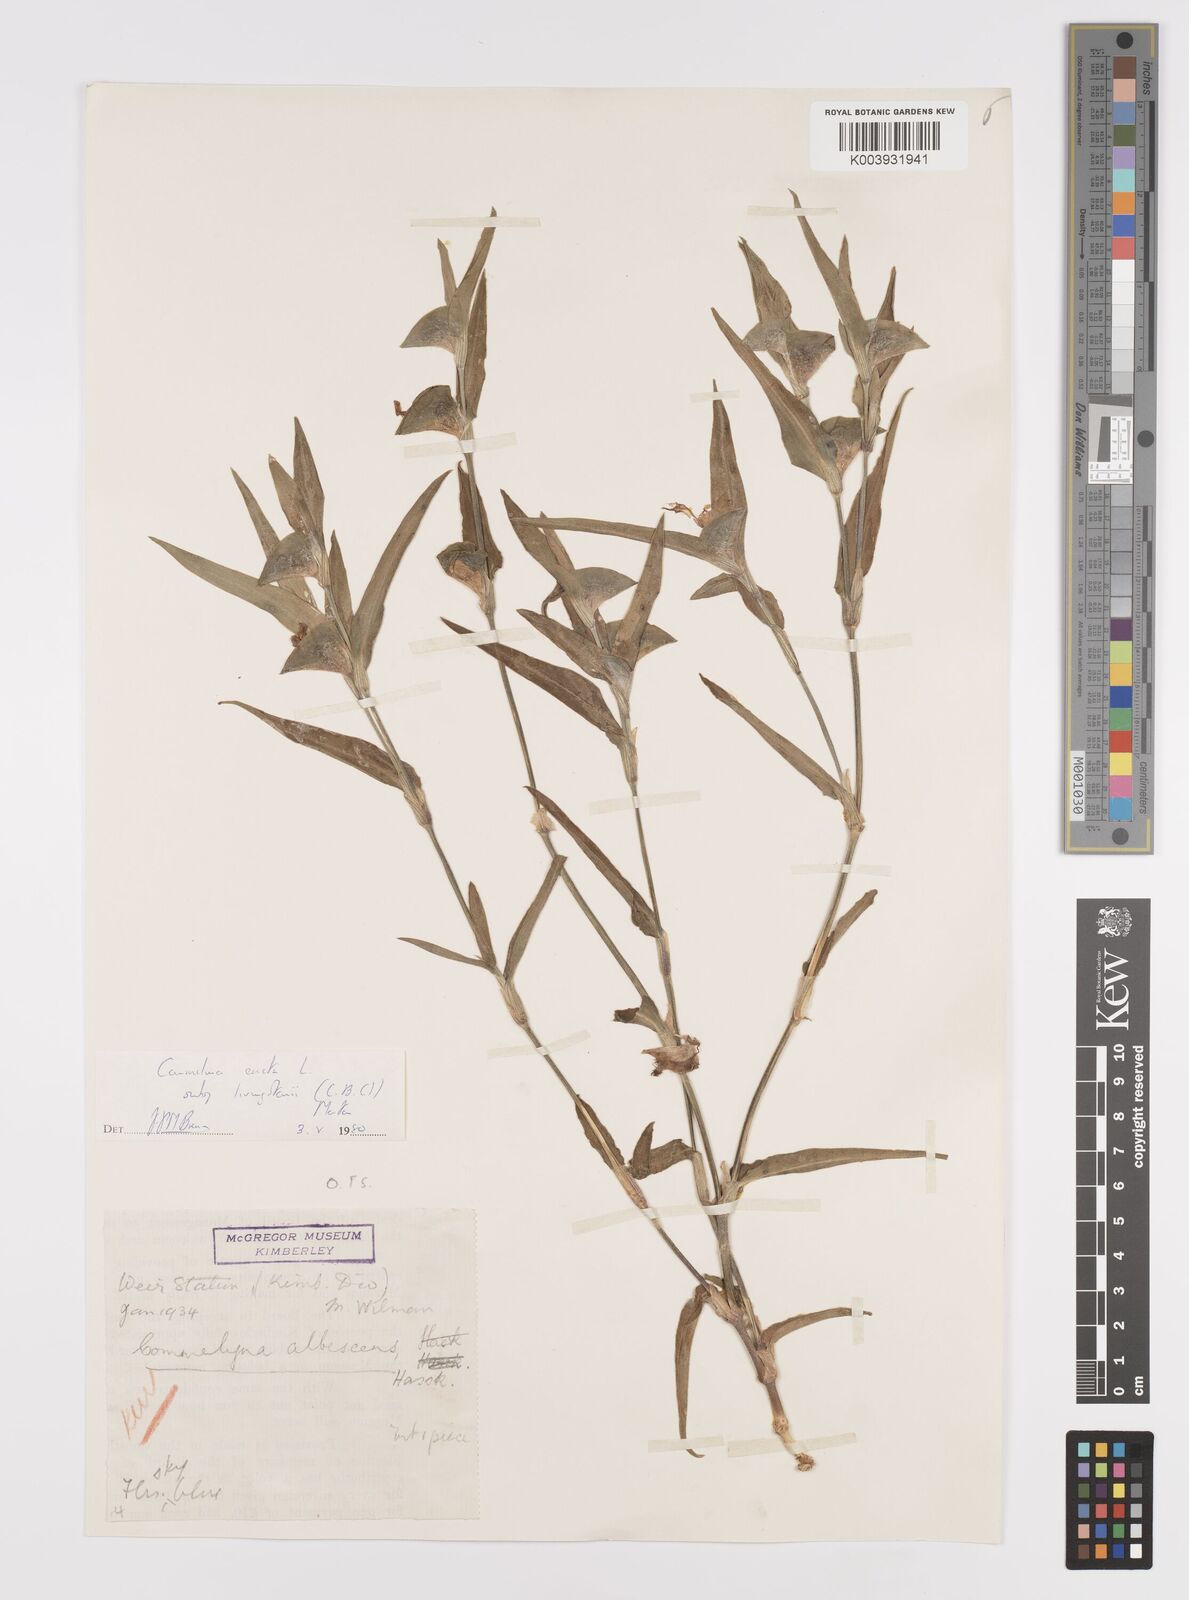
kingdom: Plantae
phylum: Tracheophyta
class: Liliopsida
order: Commelinales
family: Commelinaceae
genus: Commelina
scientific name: Commelina erecta
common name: Blousel blommetjie
